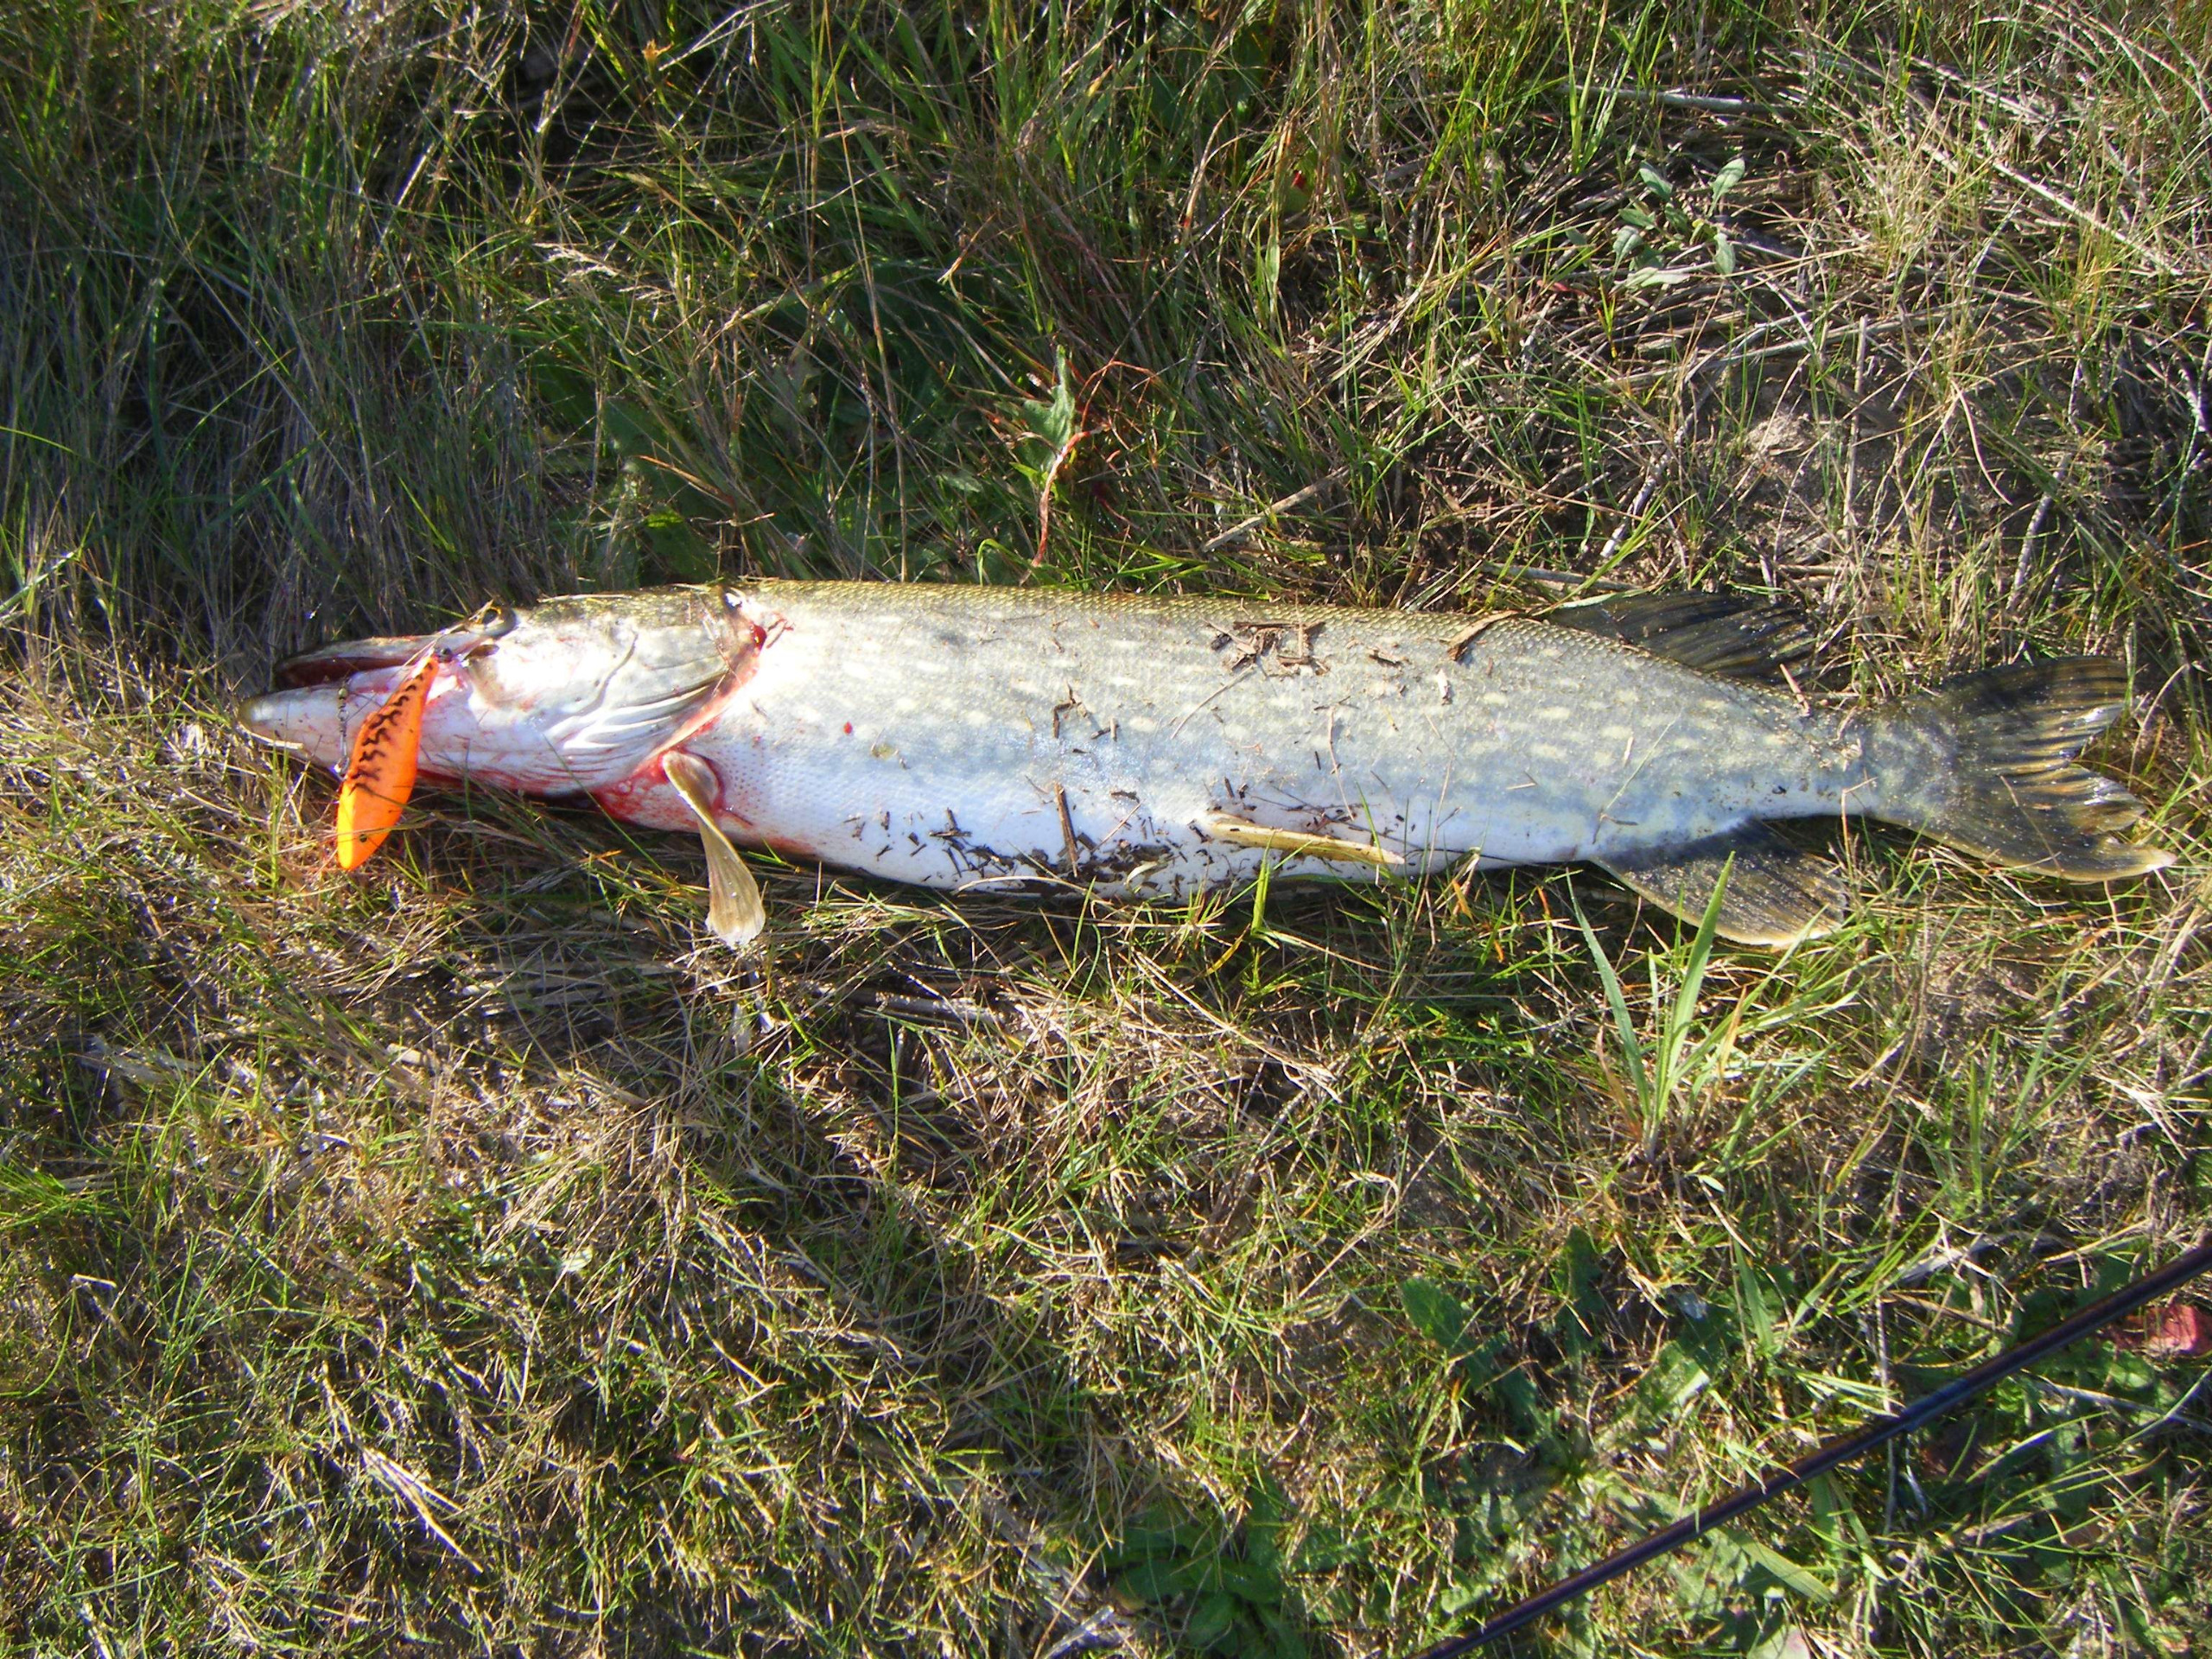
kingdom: Animalia
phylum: Chordata
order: Esociformes
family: Esocidae
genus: Esox
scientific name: Esox lucius
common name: Gedde
